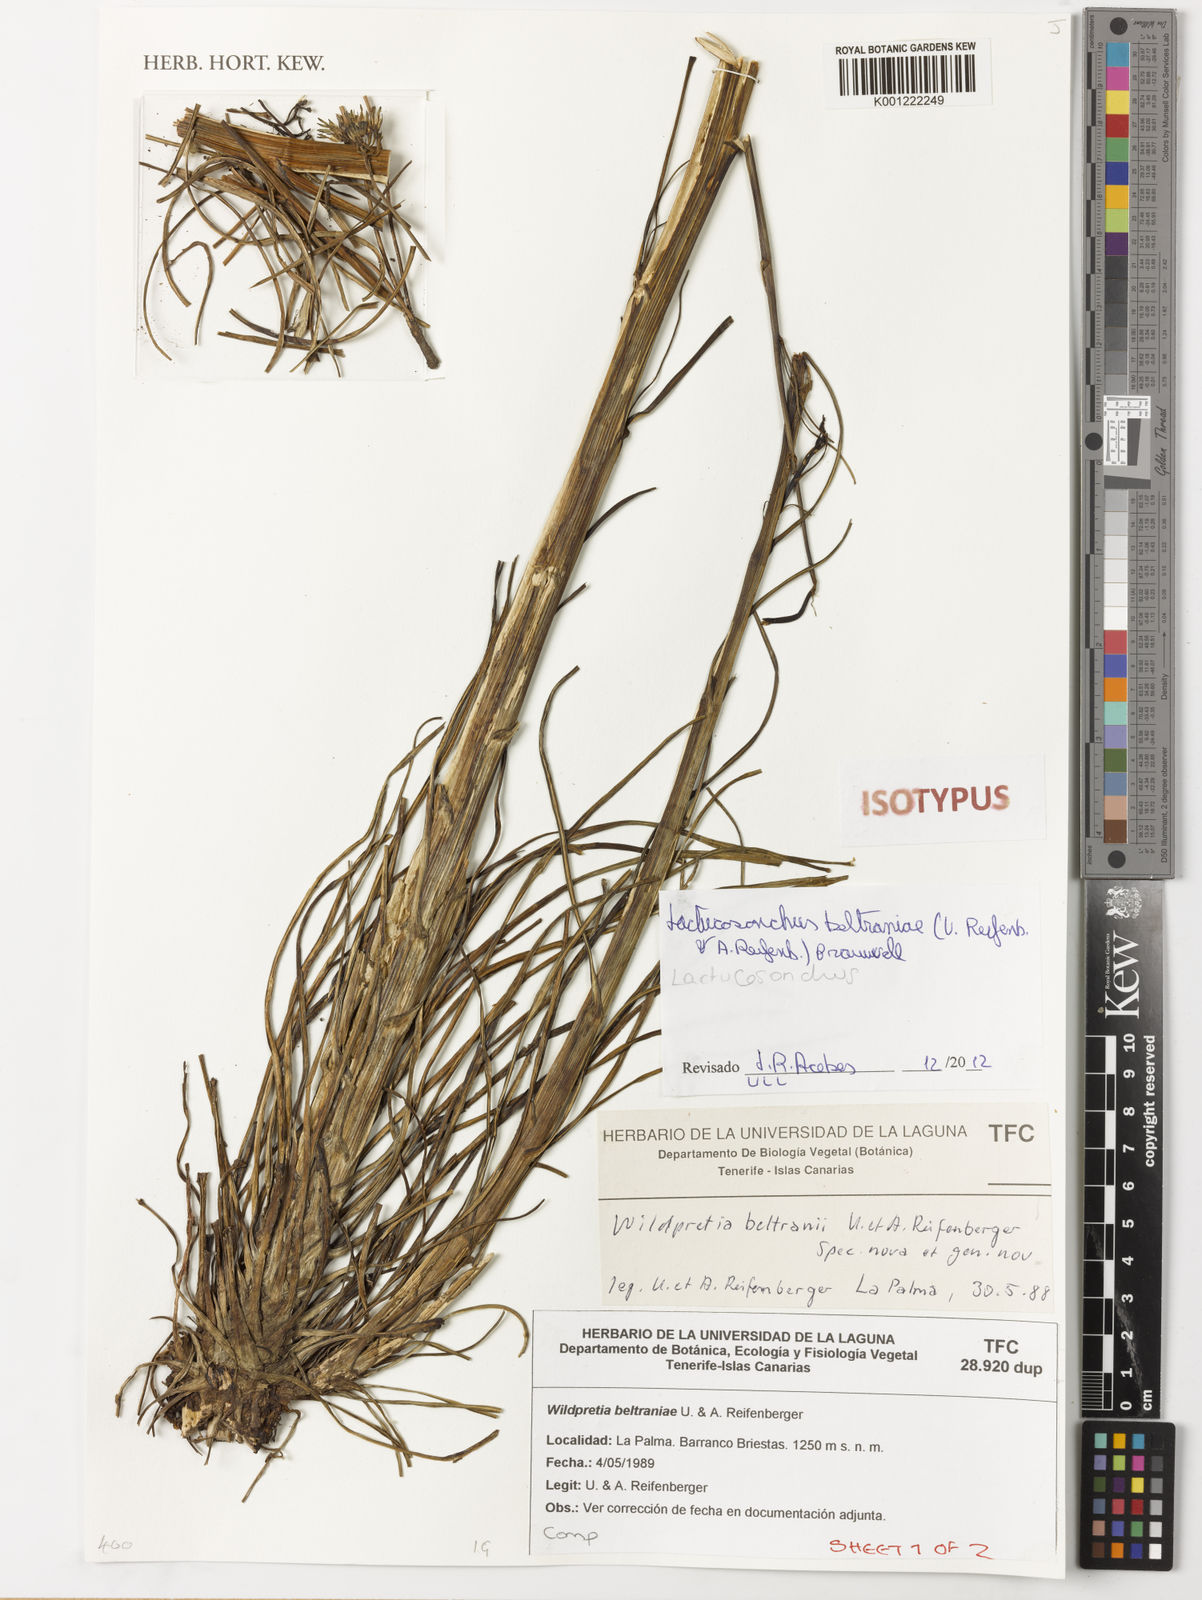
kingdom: Plantae
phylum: Tracheophyta
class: Magnoliopsida
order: Asterales
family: Asteraceae
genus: Sonchus
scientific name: Sonchus esperanzae
